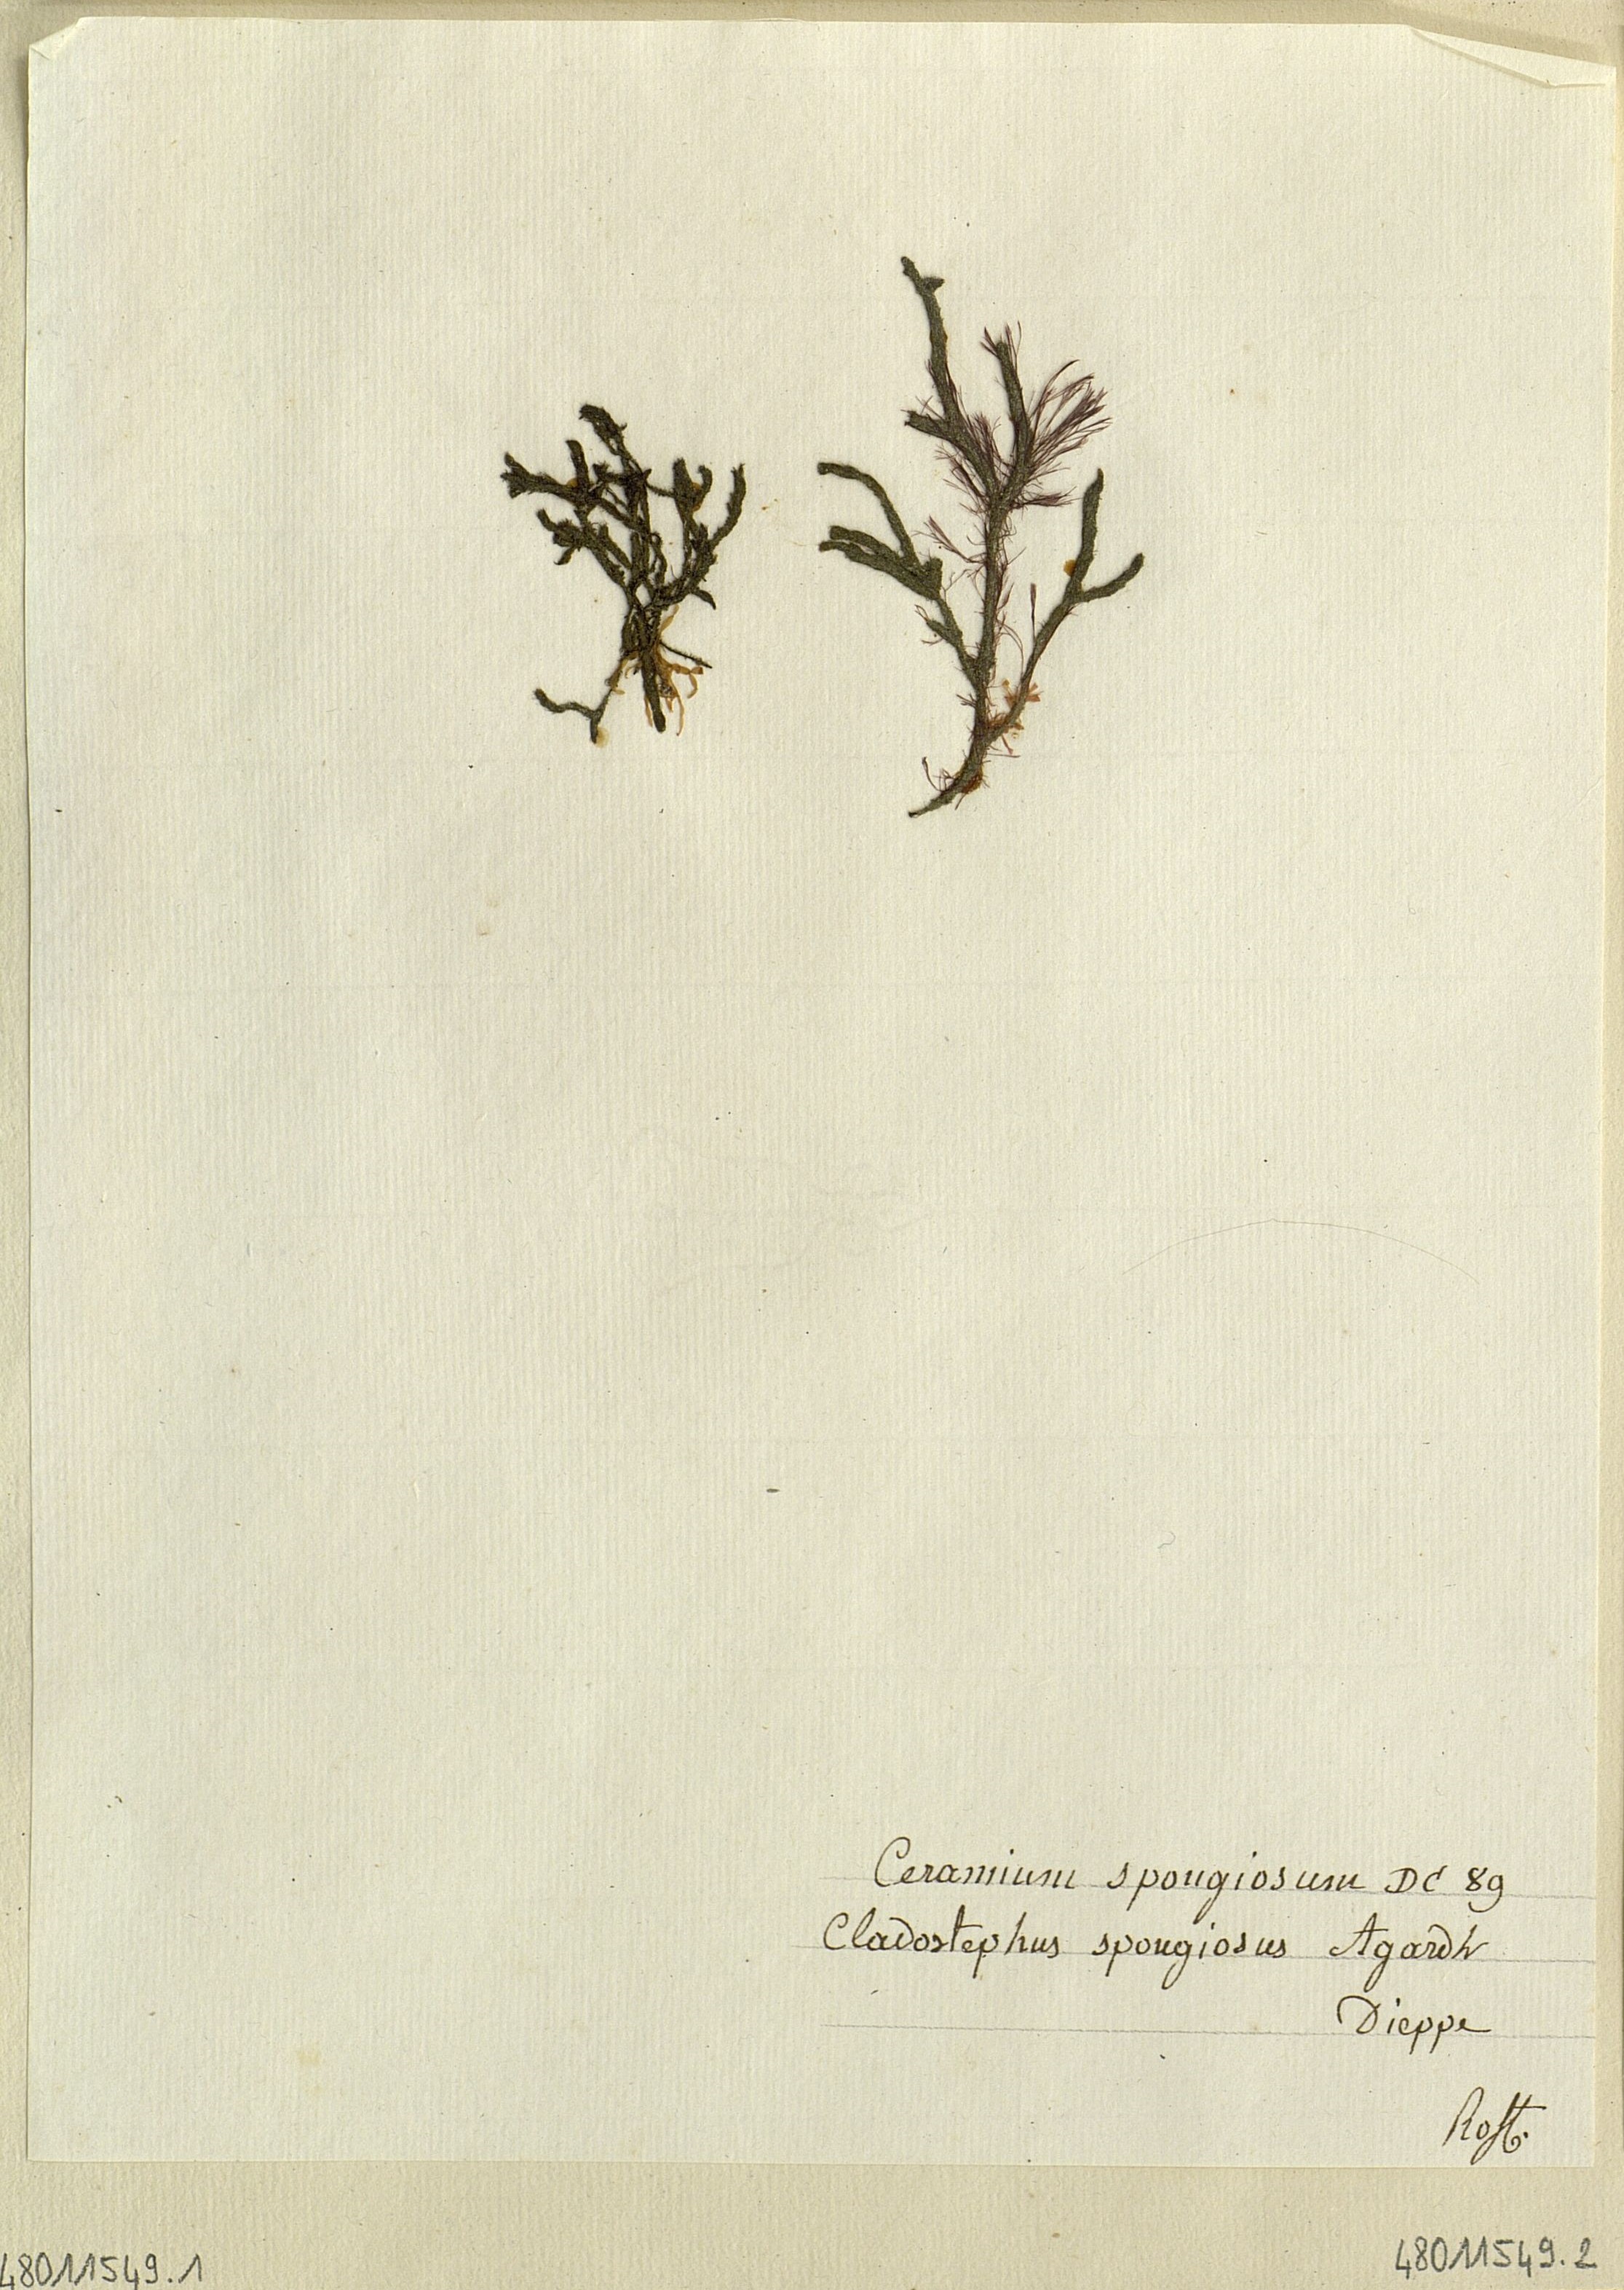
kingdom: Plantae
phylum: Rhodophyta
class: Florideophyceae
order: Ceramiales
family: Ceramiaceae
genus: Ceramium
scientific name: Ceramium
